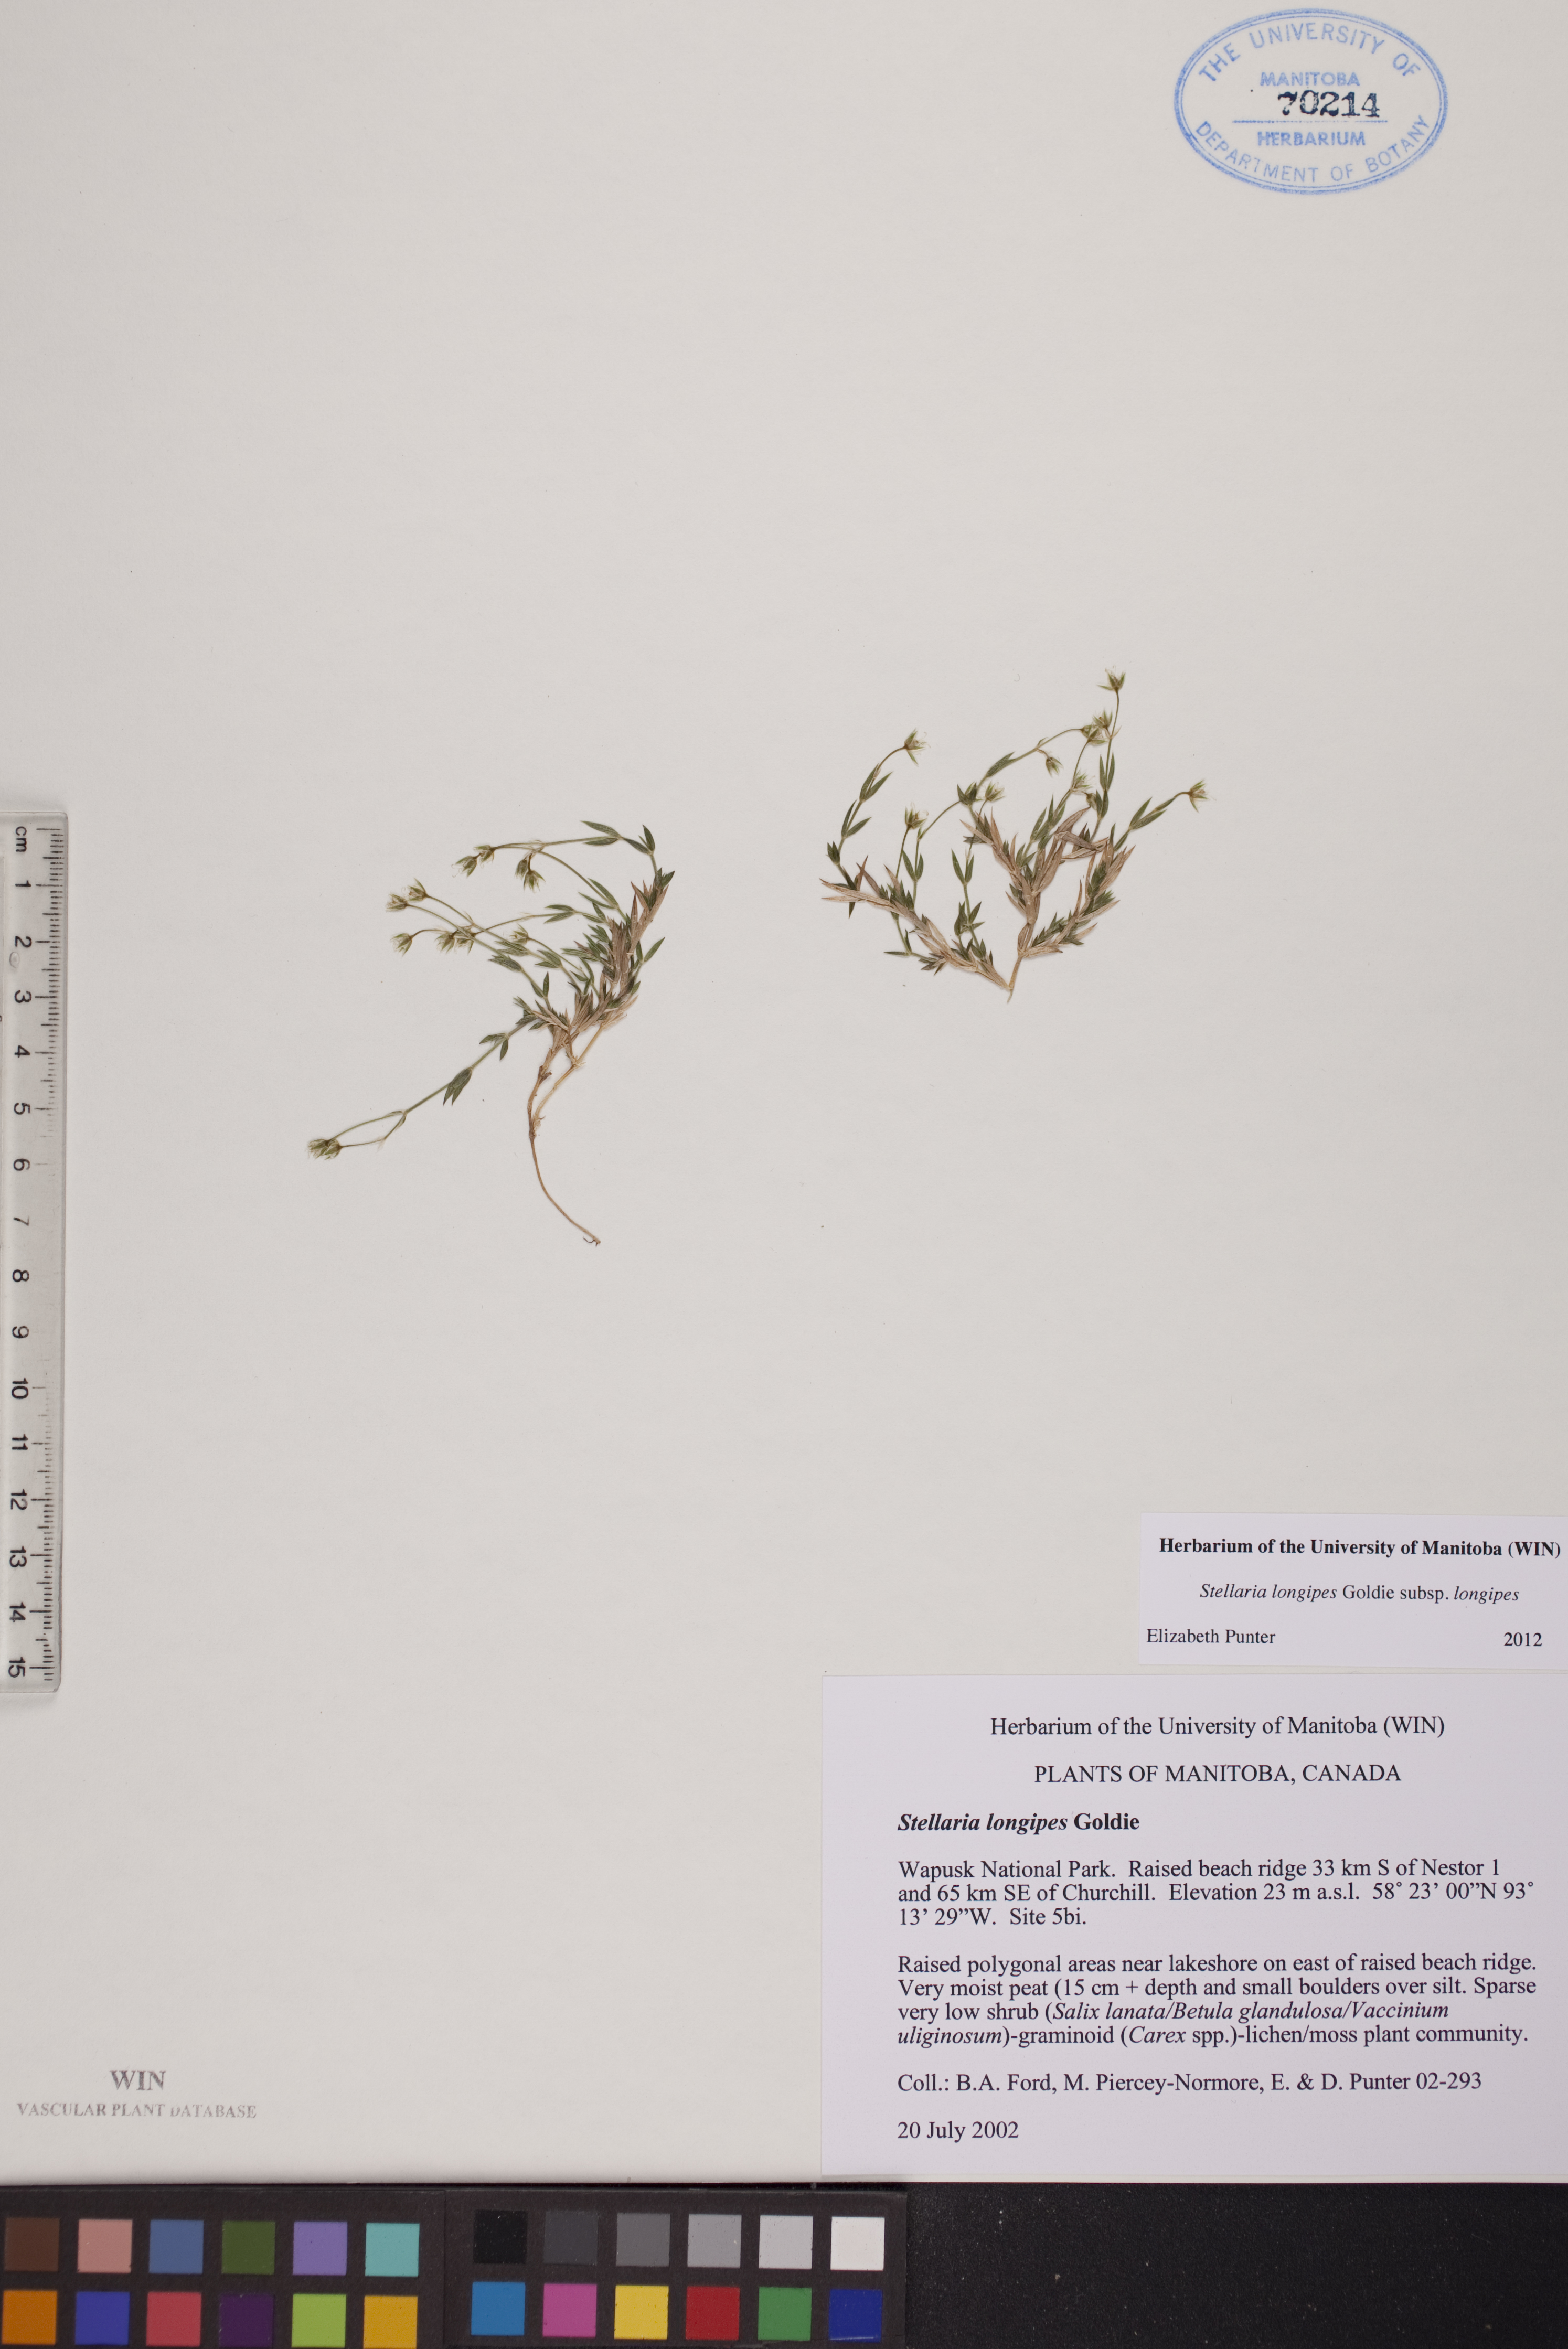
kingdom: Plantae
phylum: Tracheophyta
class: Magnoliopsida
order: Caryophyllales
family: Caryophyllaceae
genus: Stellaria
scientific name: Stellaria longipes
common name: Goldie's starwort
